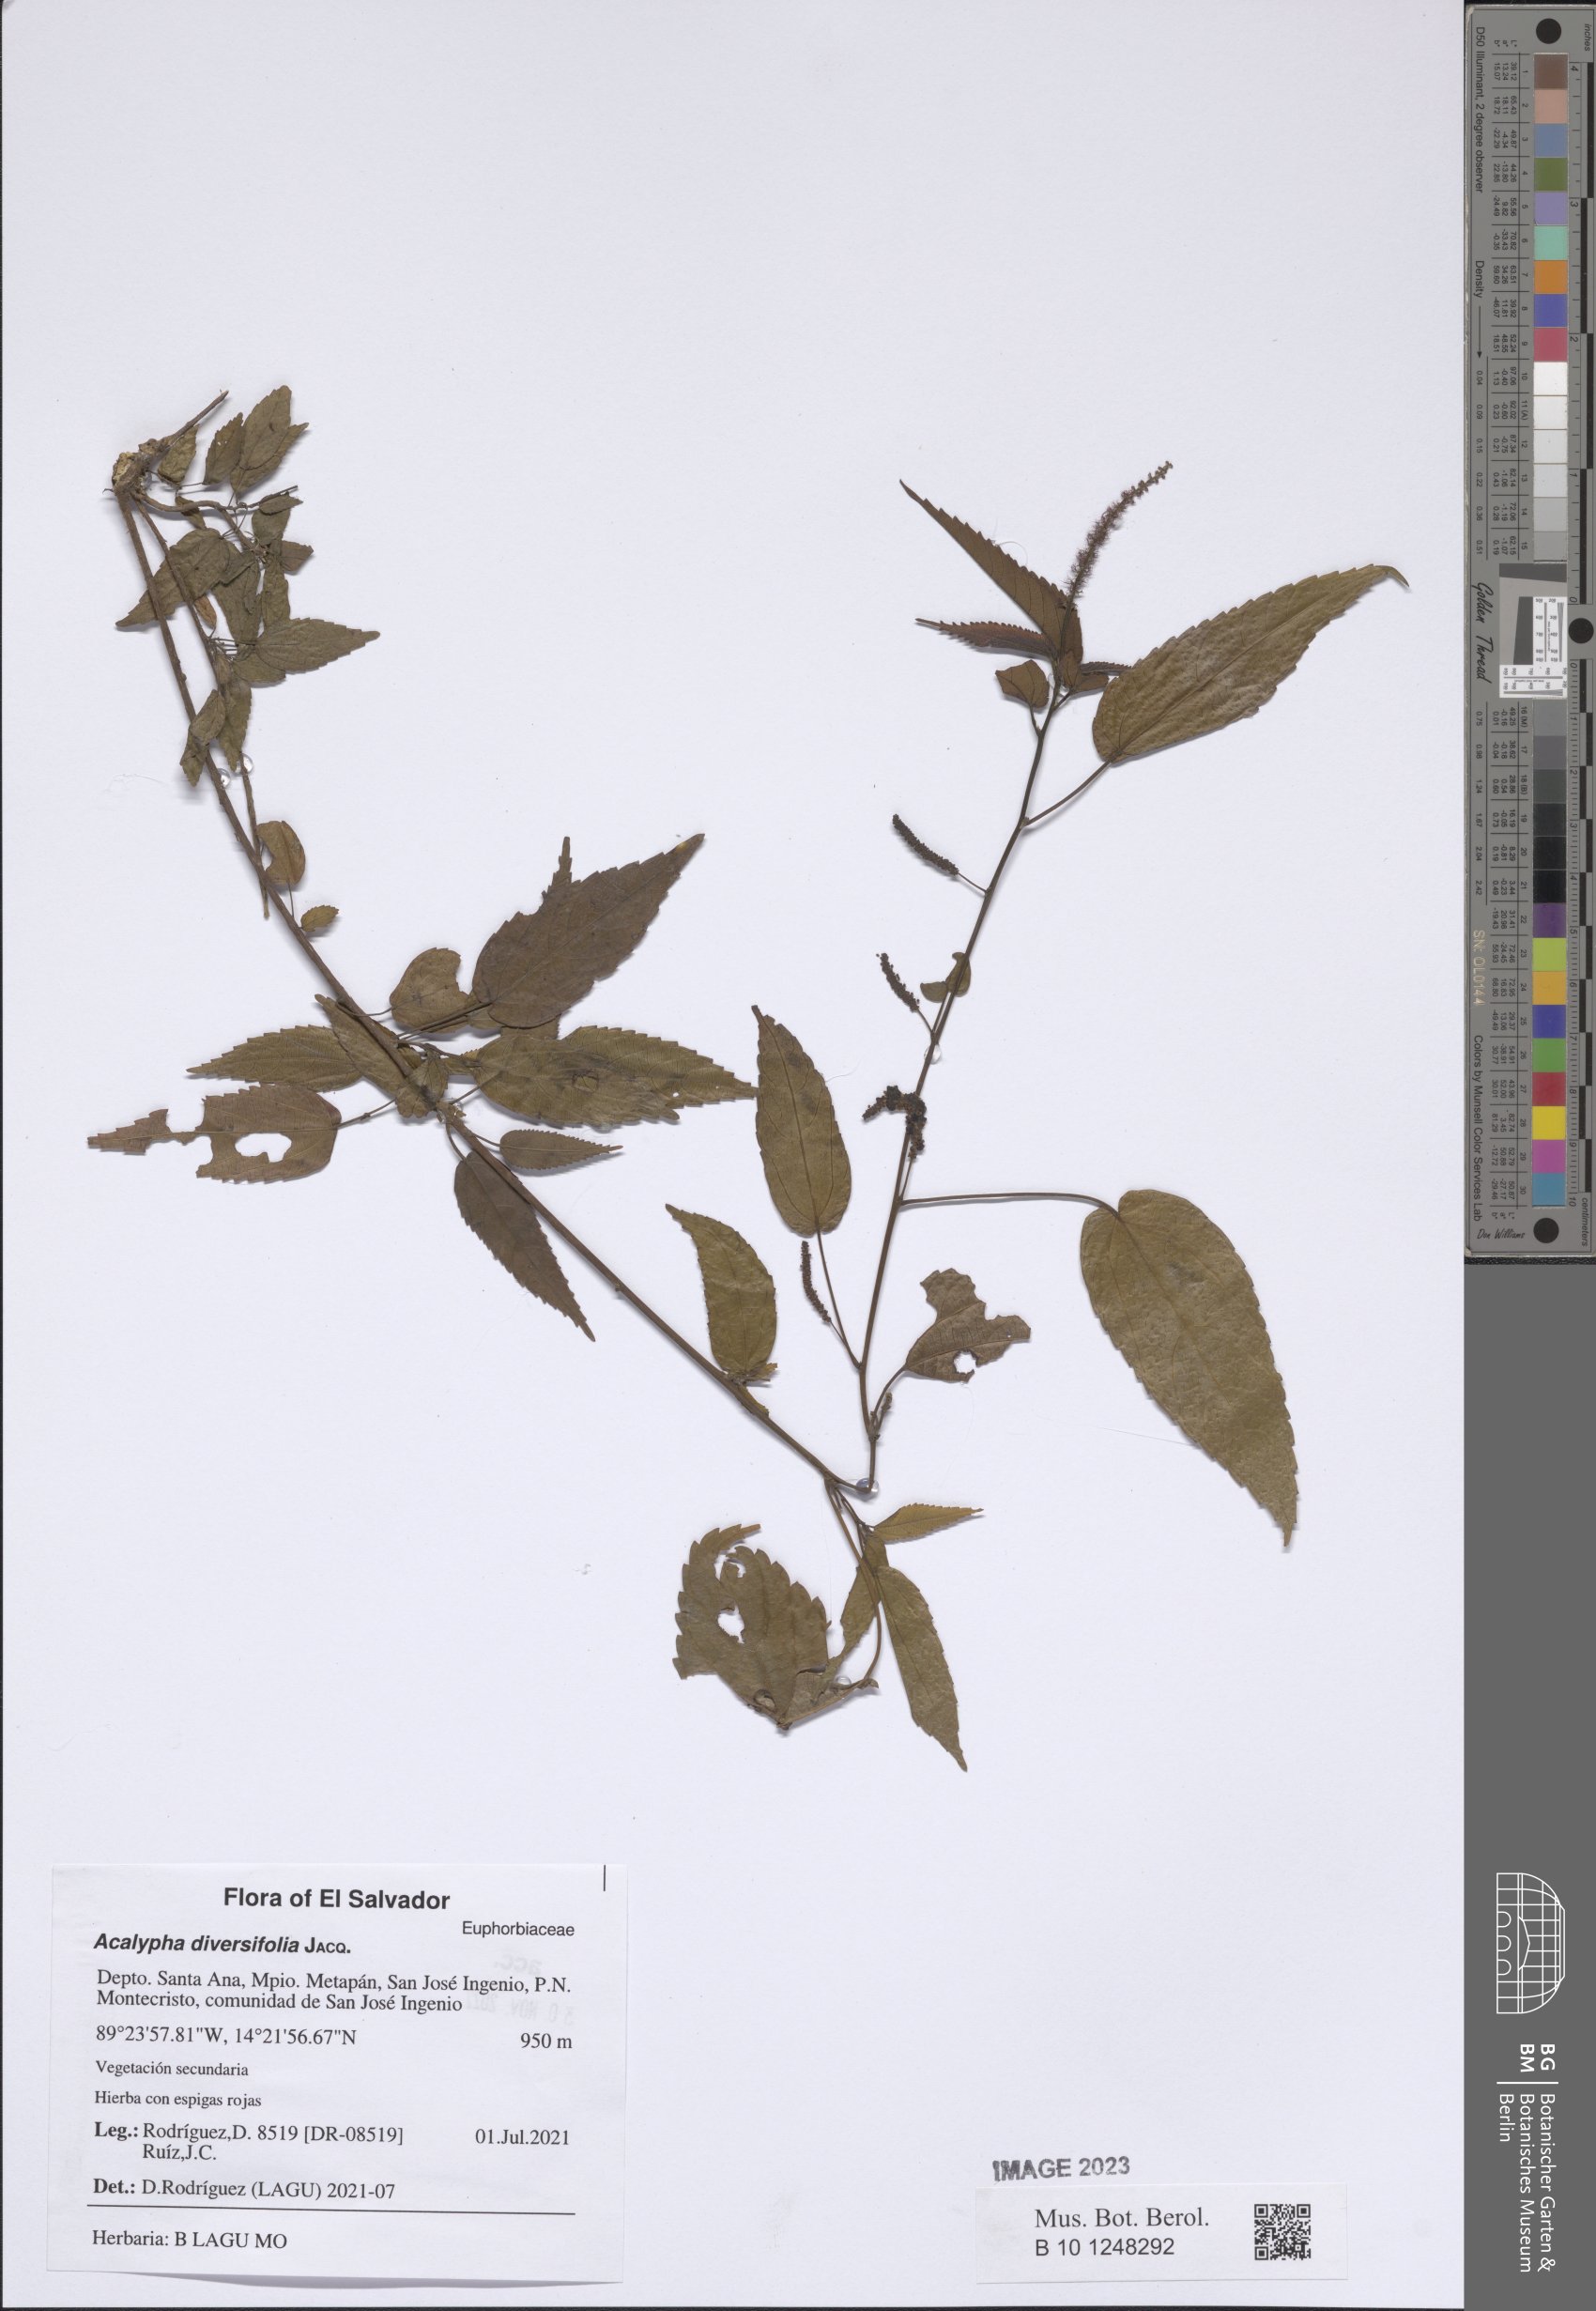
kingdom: Plantae
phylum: Tracheophyta
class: Magnoliopsida
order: Malpighiales
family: Euphorbiaceae
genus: Acalypha
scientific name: Acalypha diversifolia
